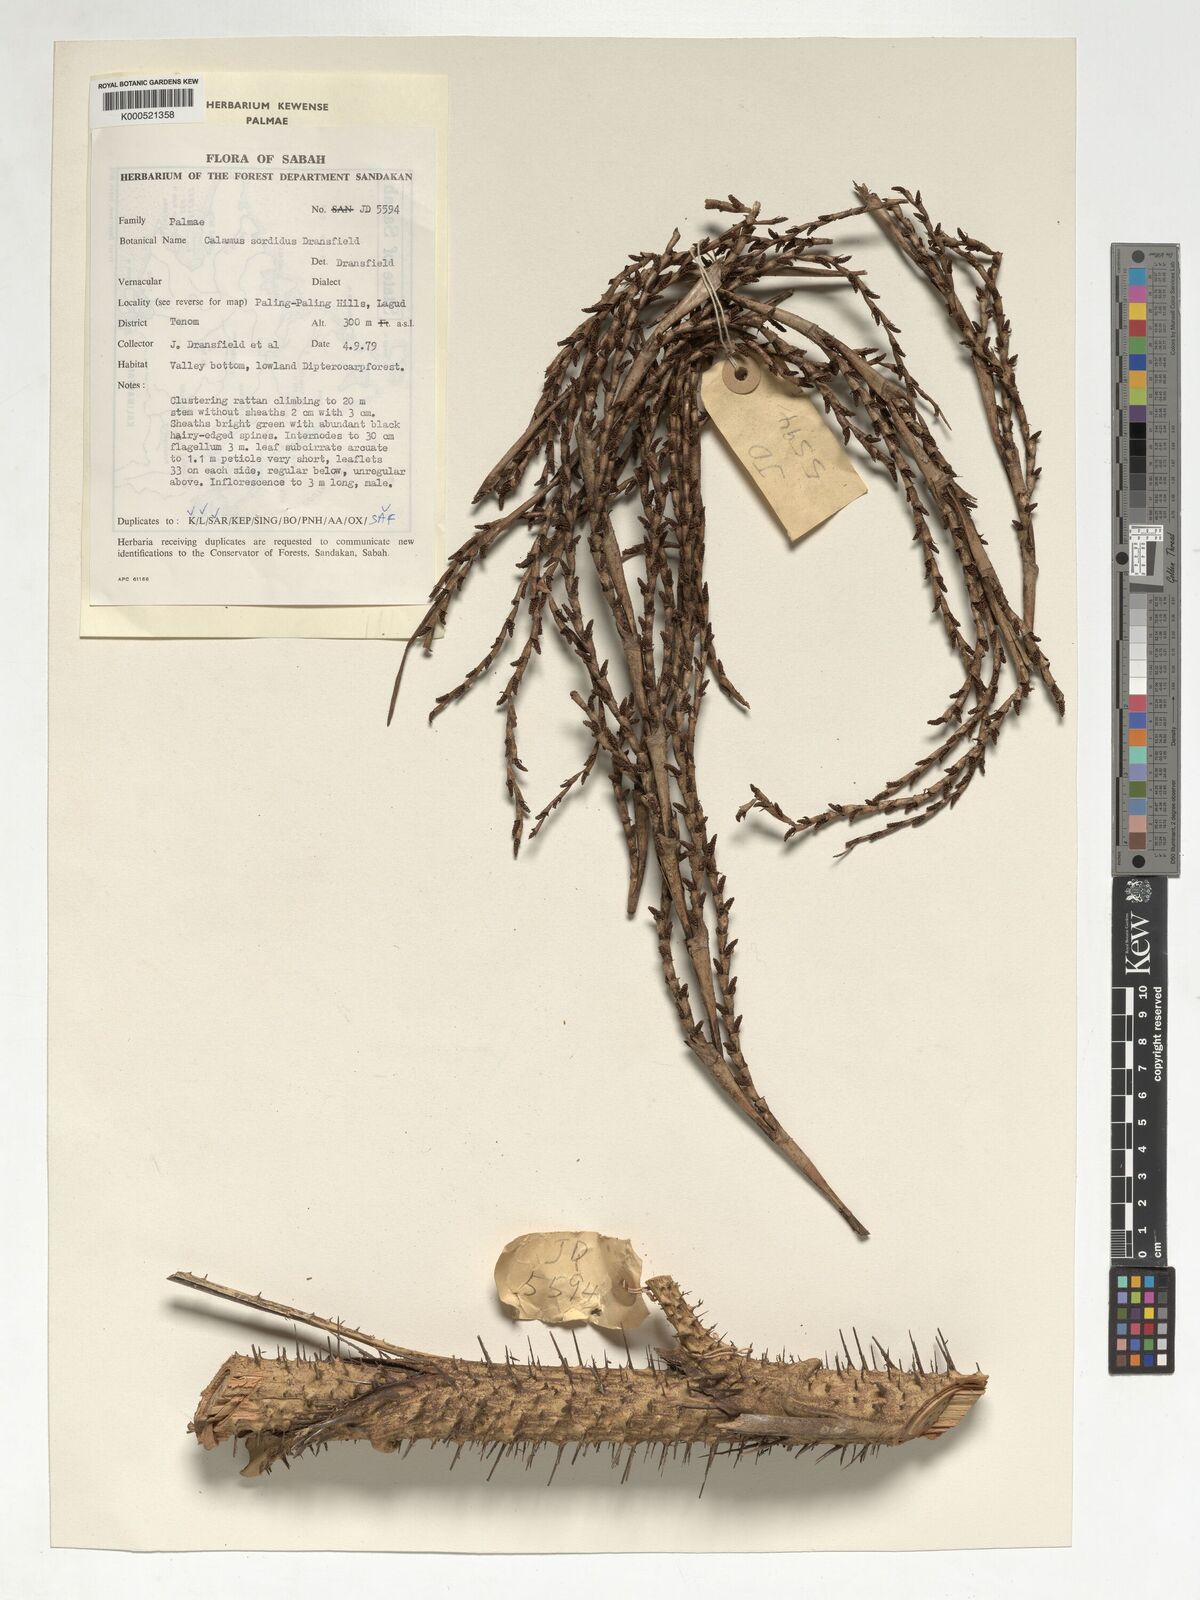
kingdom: Plantae
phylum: Tracheophyta
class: Liliopsida
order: Arecales
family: Arecaceae
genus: Calamus
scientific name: Calamus sordidus
